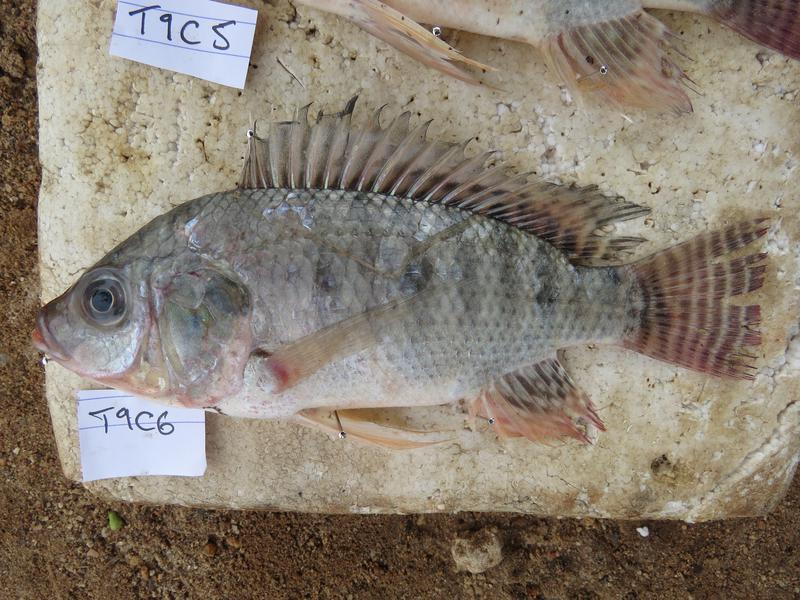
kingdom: Animalia
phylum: Chordata
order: Perciformes
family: Cichlidae
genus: Oreochromis
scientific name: Oreochromis niloticus
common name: Nile tilapia
